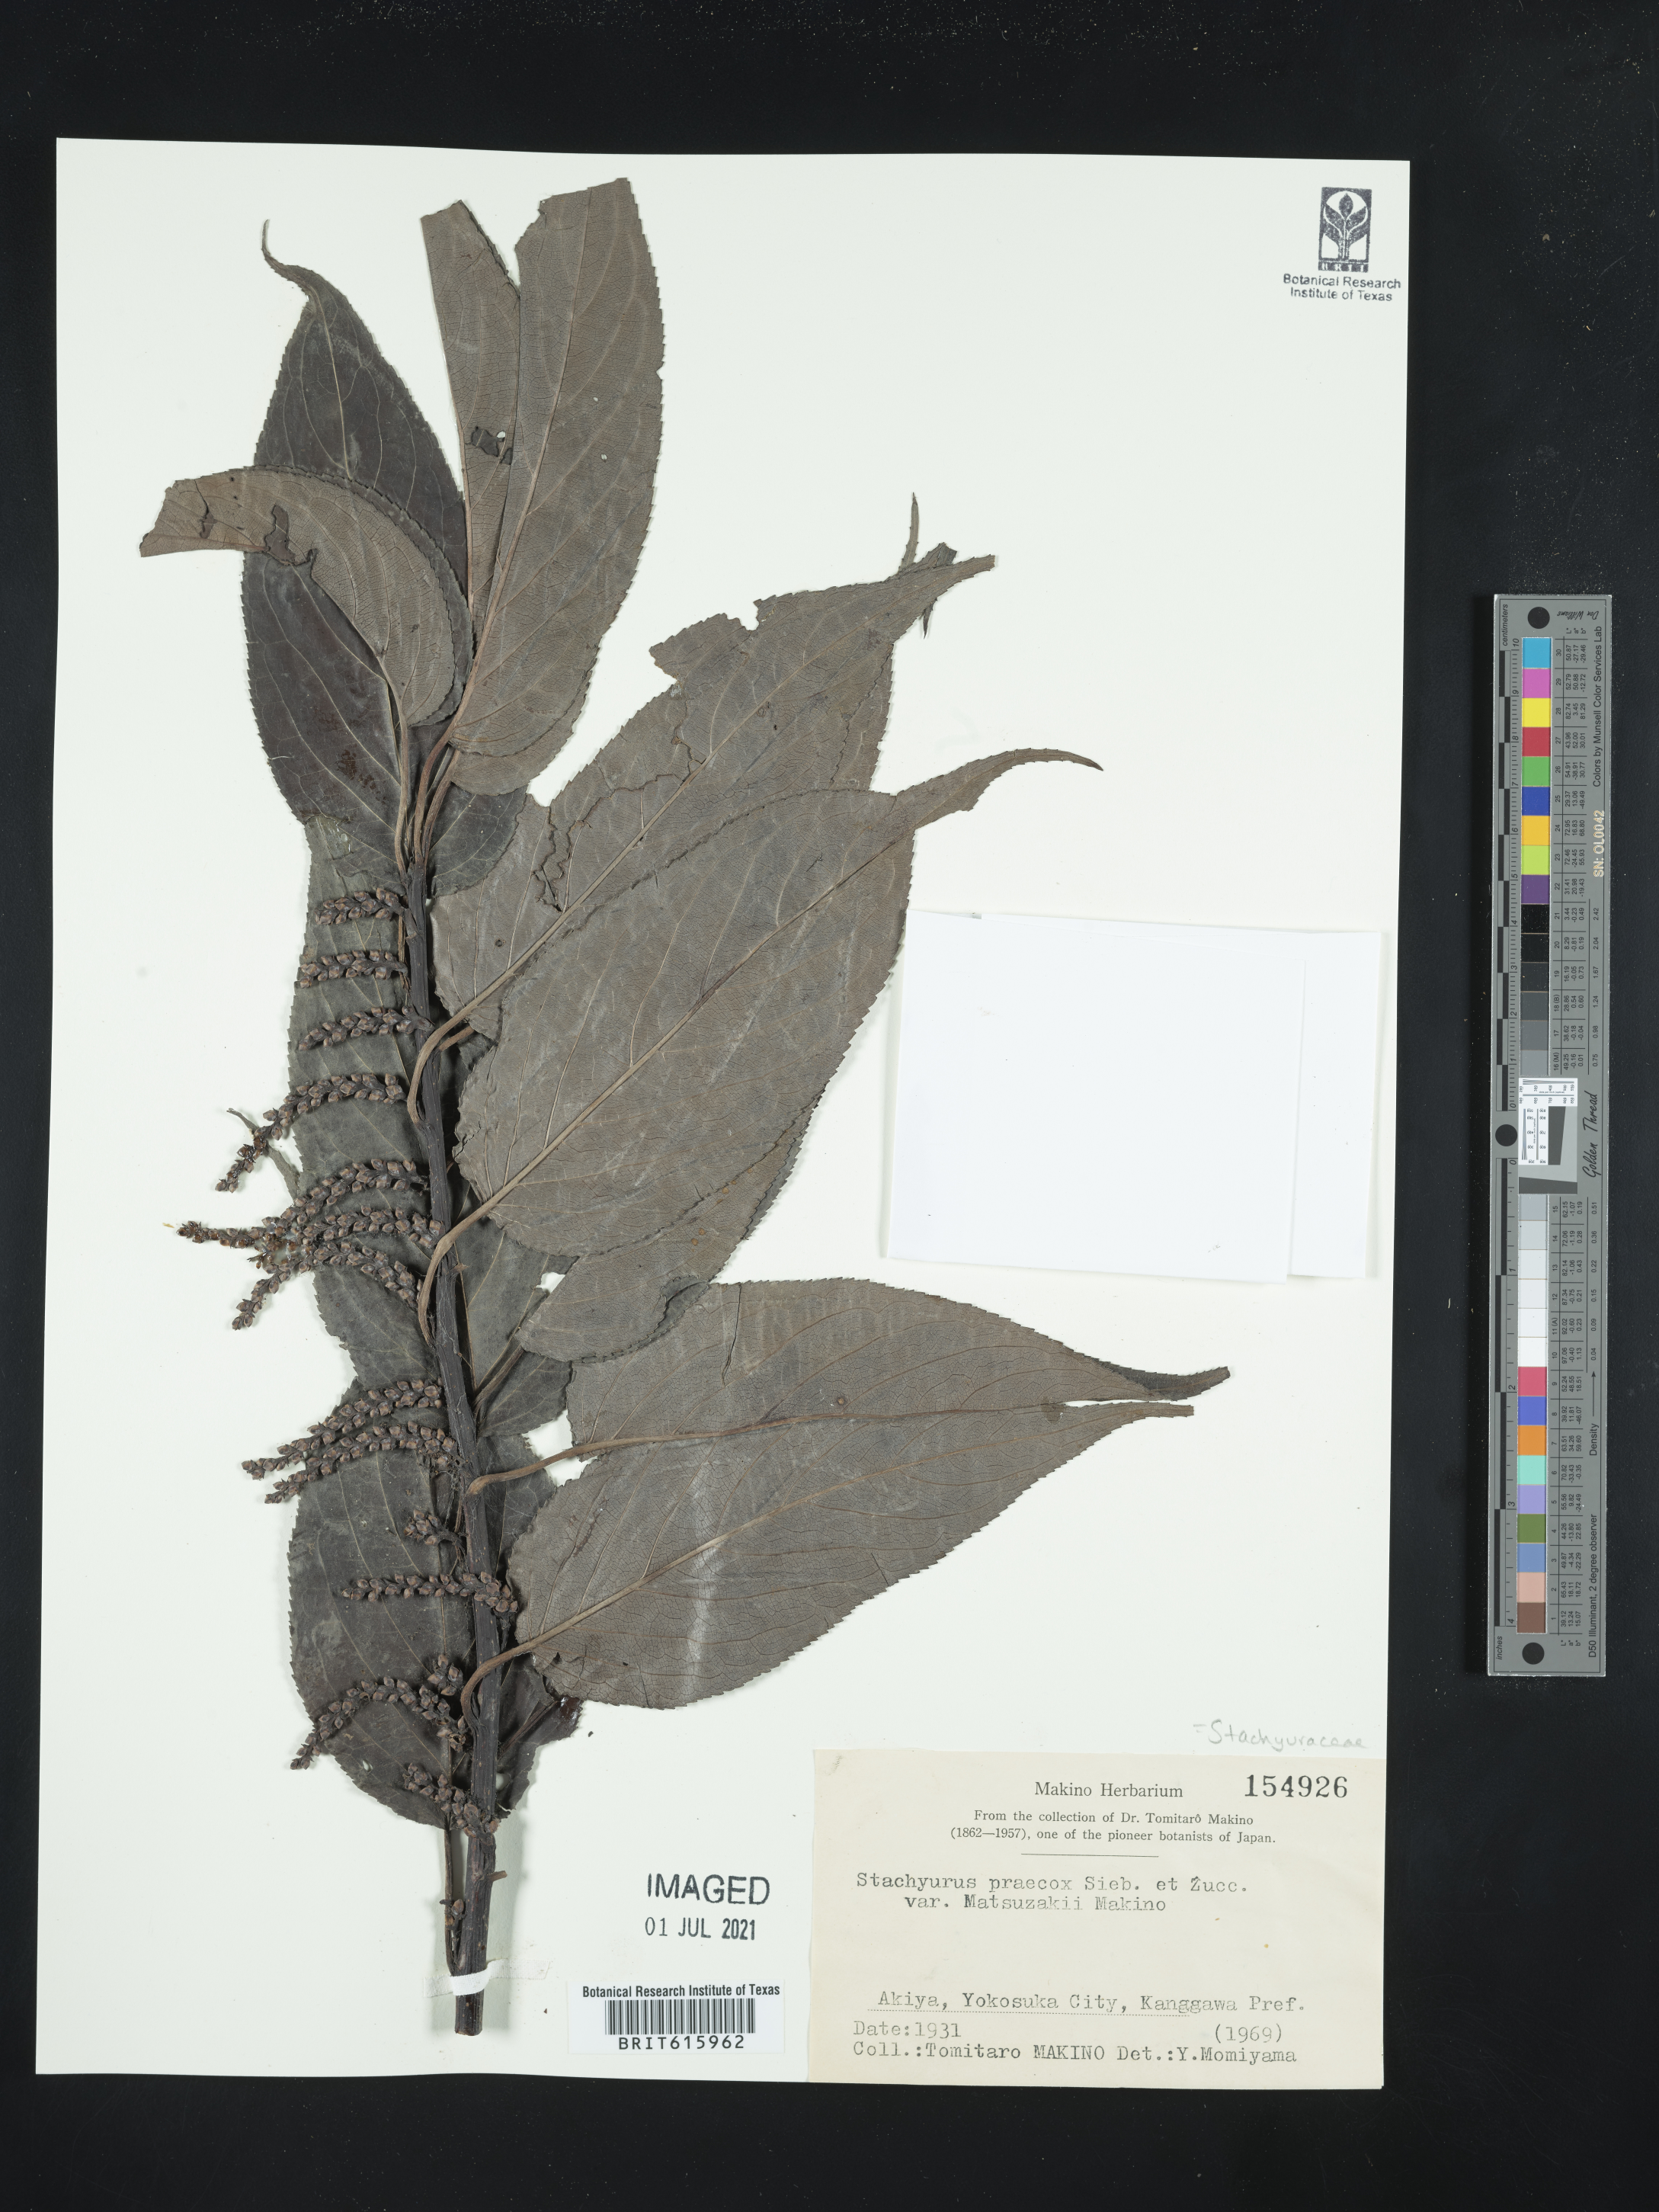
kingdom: Plantae
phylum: Tracheophyta
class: Magnoliopsida
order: Crossosomatales
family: Stachyuraceae
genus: Stachyurus
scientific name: Stachyurus praecox
